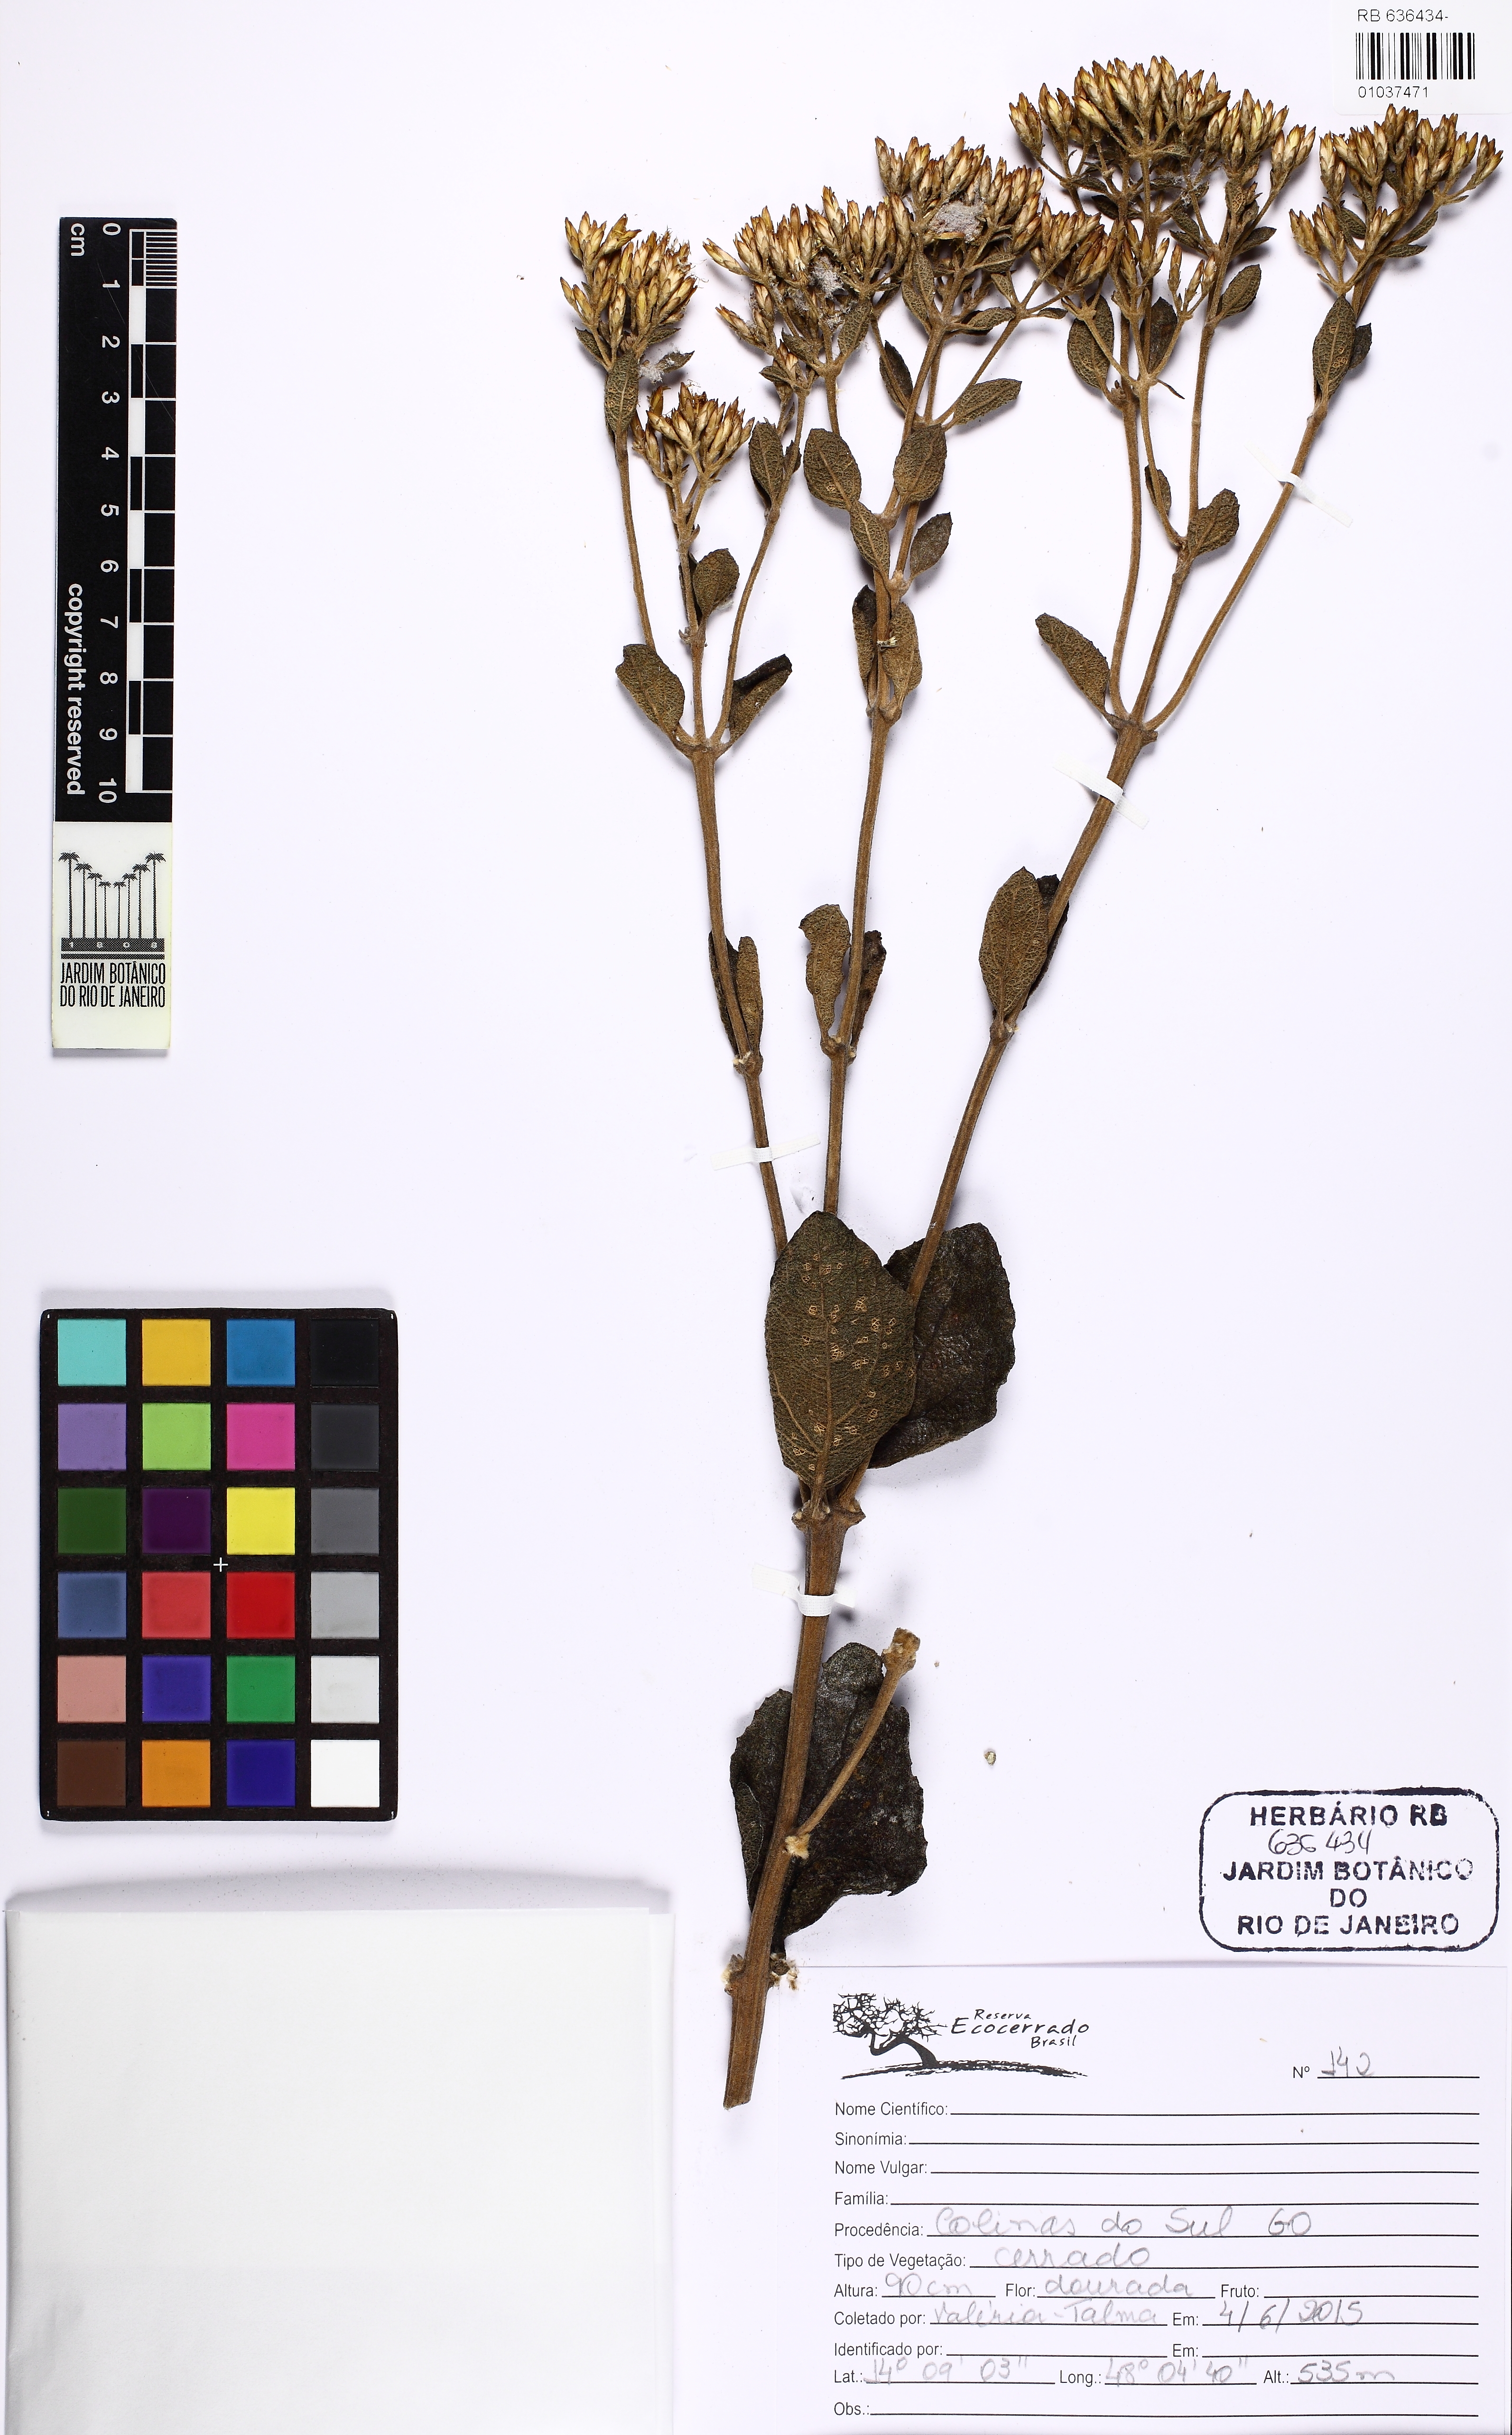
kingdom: Plantae
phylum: Tracheophyta
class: Magnoliopsida
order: Asterales
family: Asteraceae
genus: Calea
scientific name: Calea fruticosa
